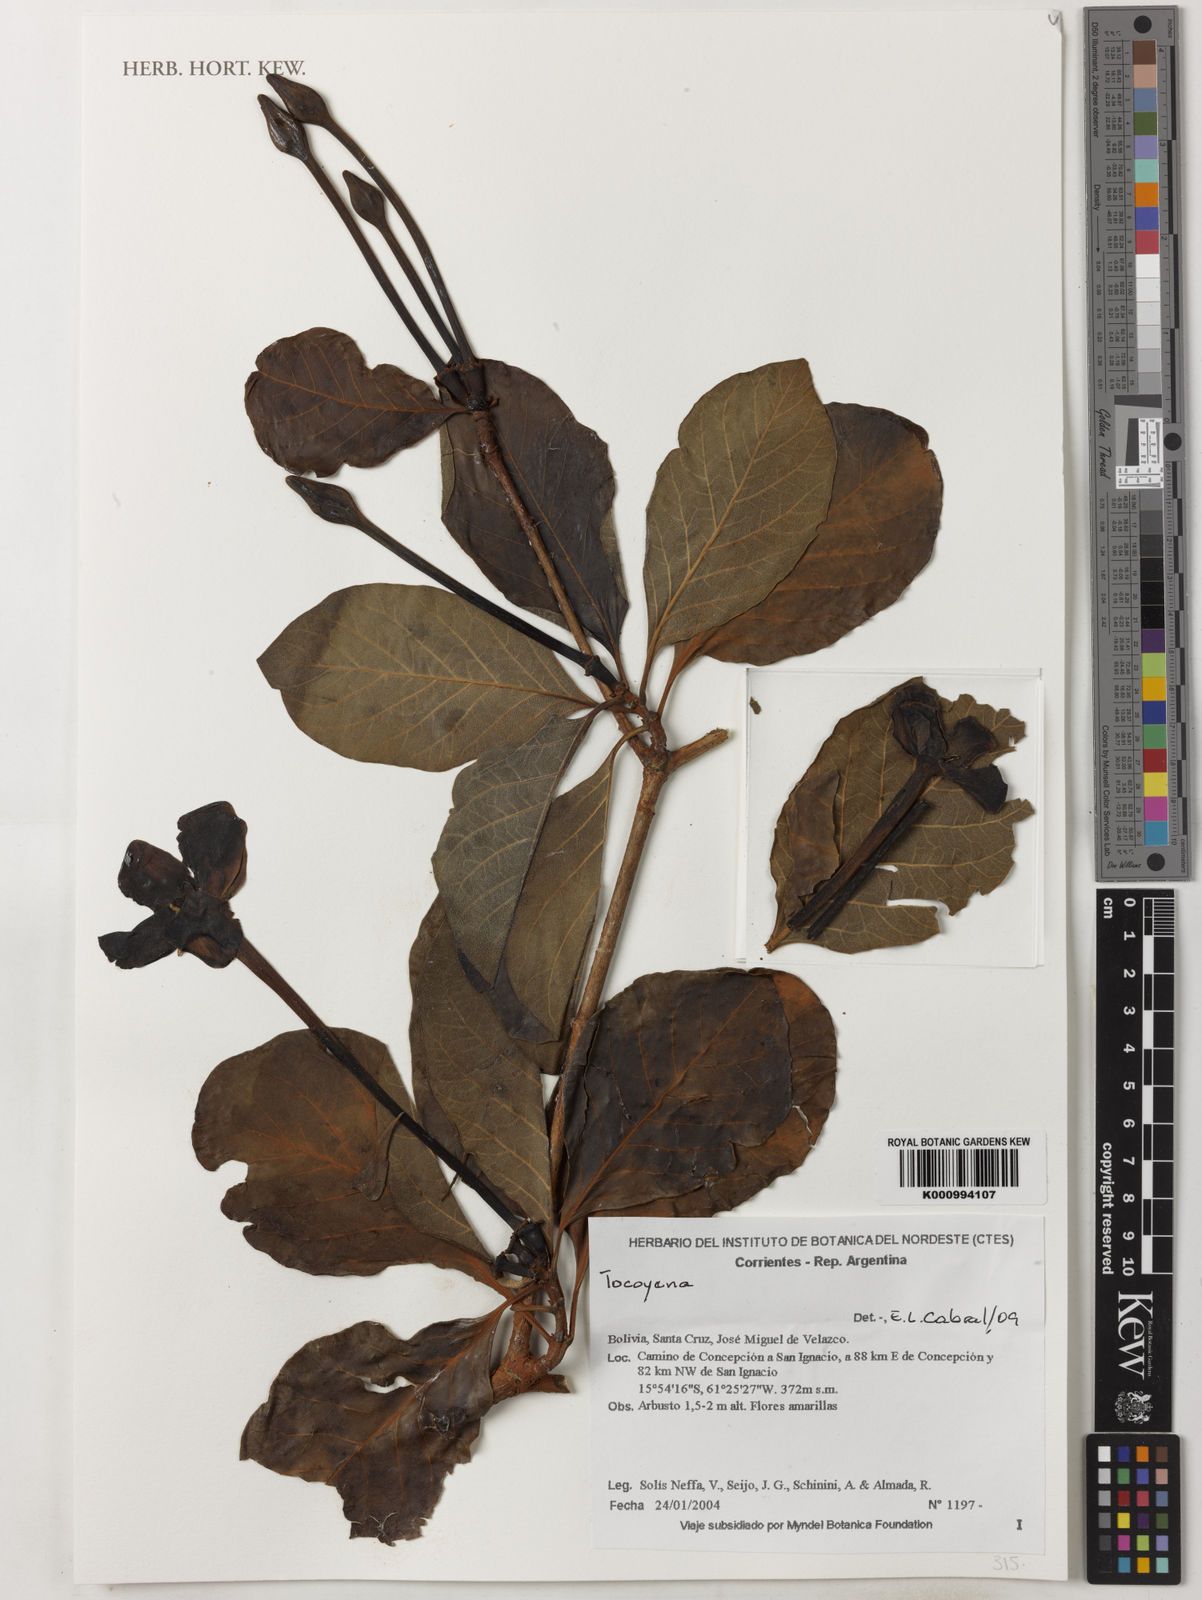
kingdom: Plantae
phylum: Tracheophyta
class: Magnoliopsida
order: Gentianales
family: Rubiaceae
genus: Tocoyena
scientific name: Tocoyena
